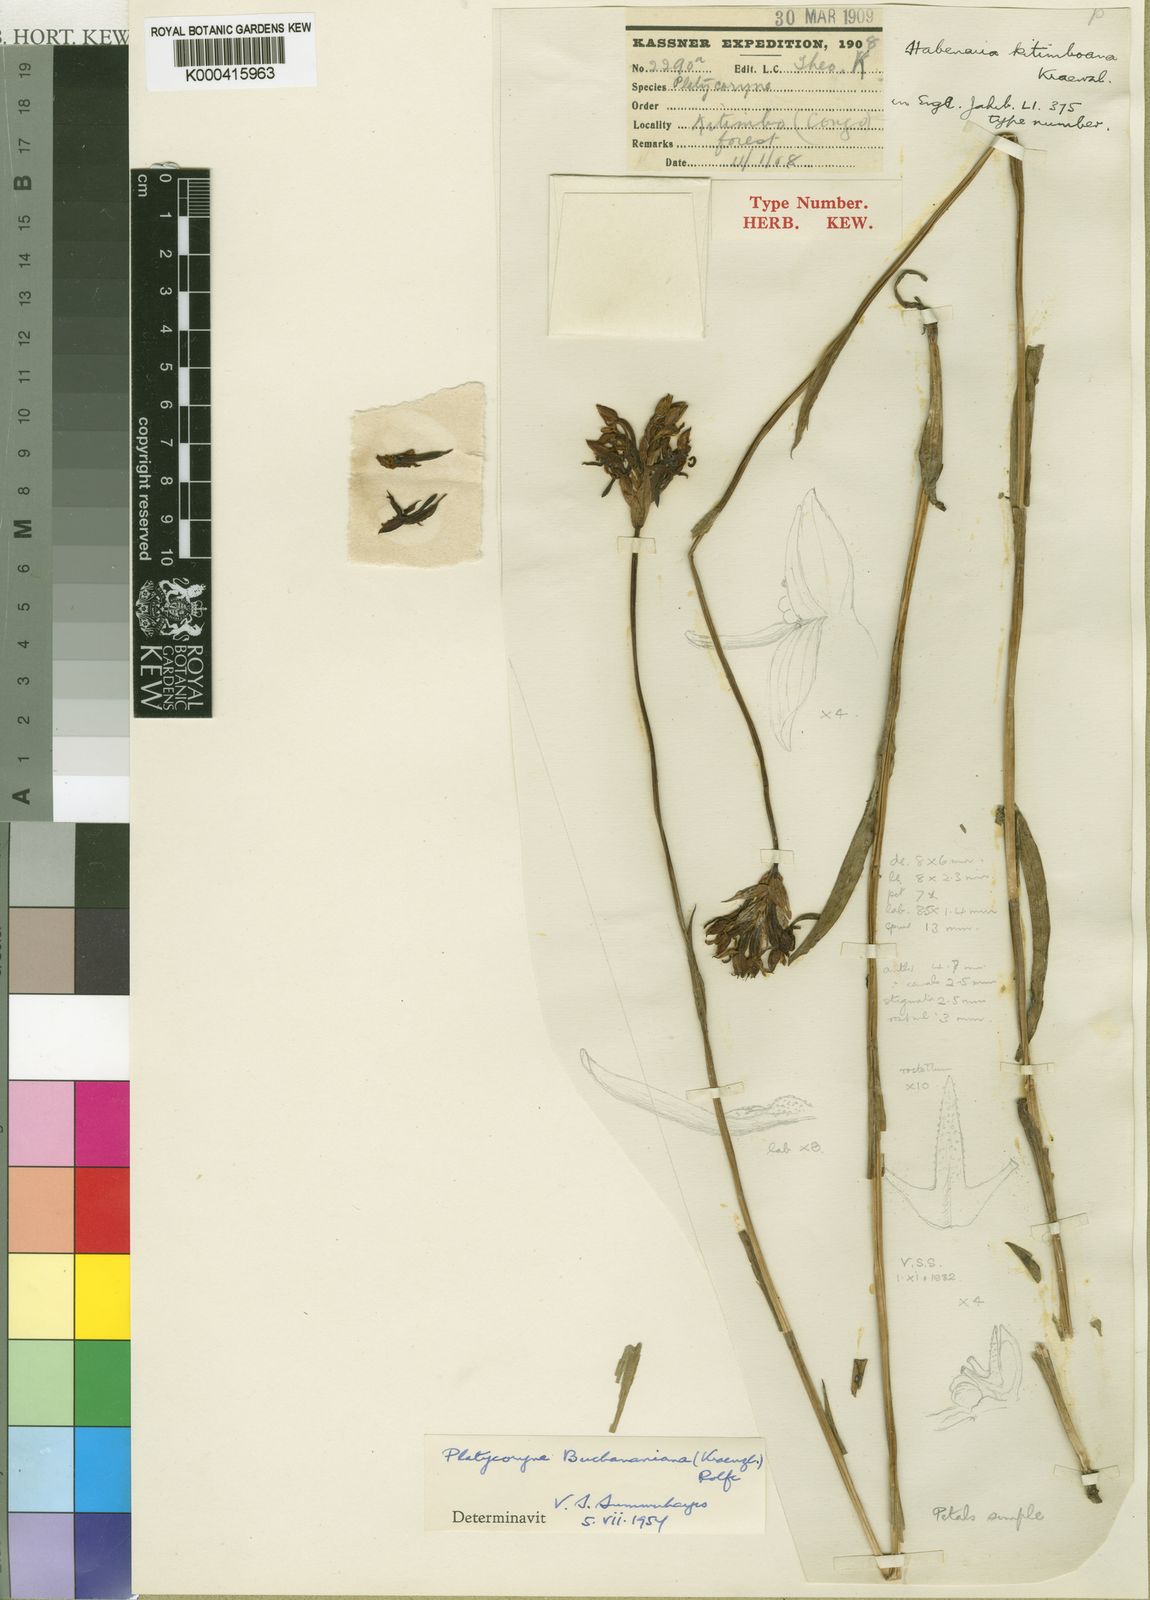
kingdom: Plantae
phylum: Tracheophyta
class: Liliopsida
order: Asparagales
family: Orchidaceae
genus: Platycoryne
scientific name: Platycoryne buchananiana
